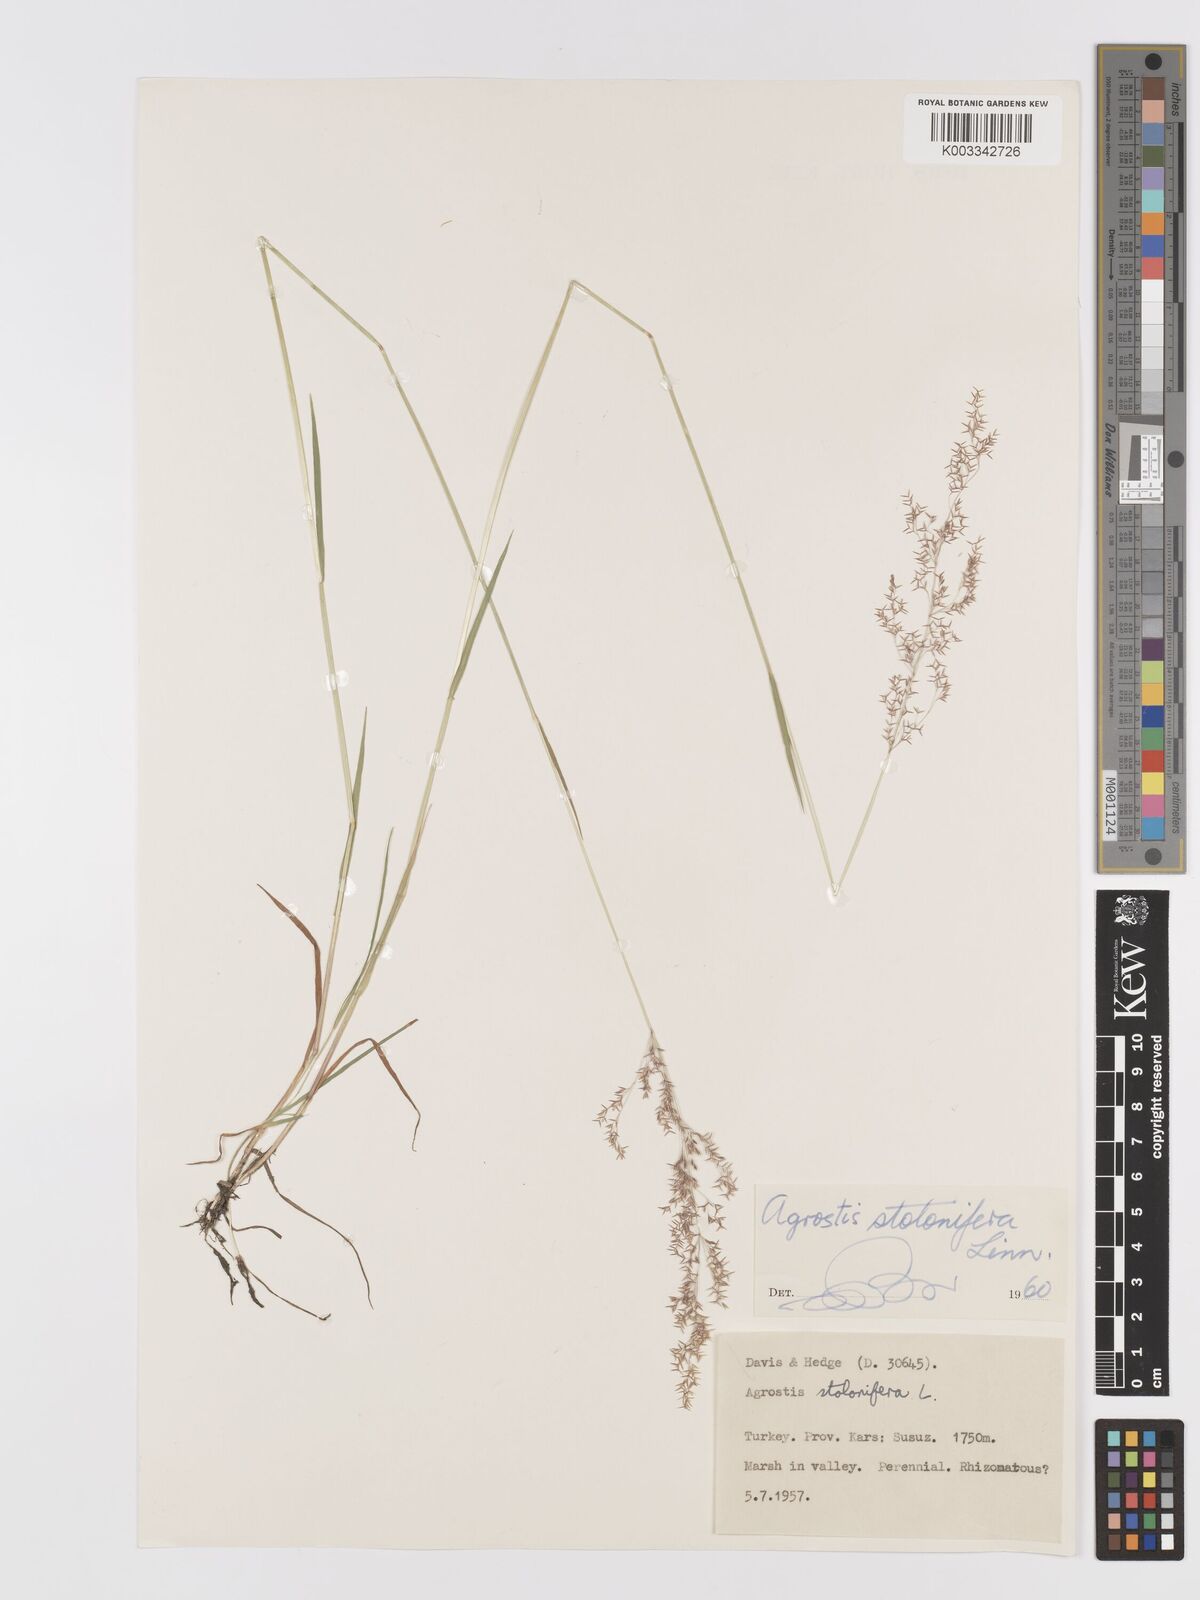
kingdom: Plantae
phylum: Tracheophyta
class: Liliopsida
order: Poales
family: Poaceae
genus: Agrostis
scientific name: Agrostis stolonifera
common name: Creeping bentgrass
